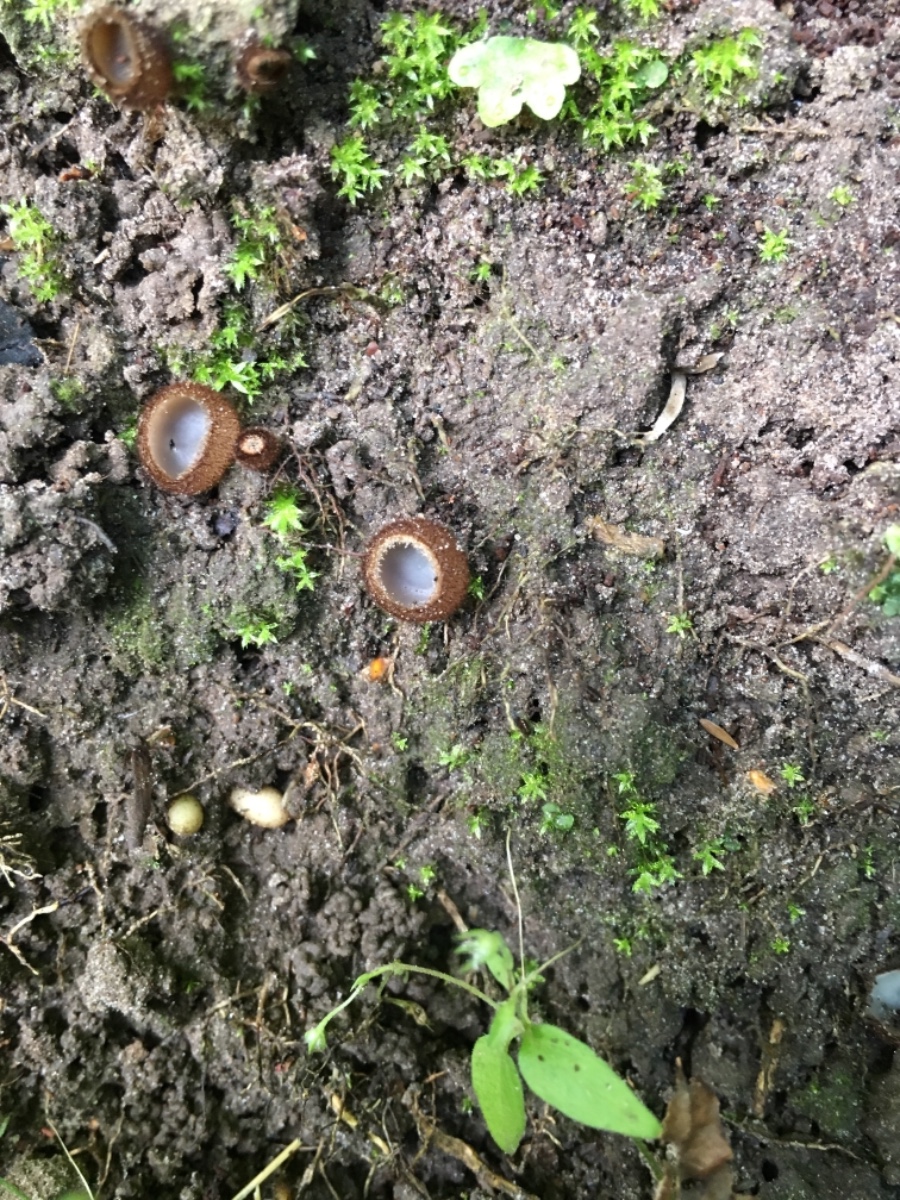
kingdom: Fungi
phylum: Ascomycota
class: Pezizomycetes
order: Pezizales
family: Pyronemataceae
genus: Humaria
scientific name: Humaria hemisphaerica
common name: halvkugleformet børstebæger
